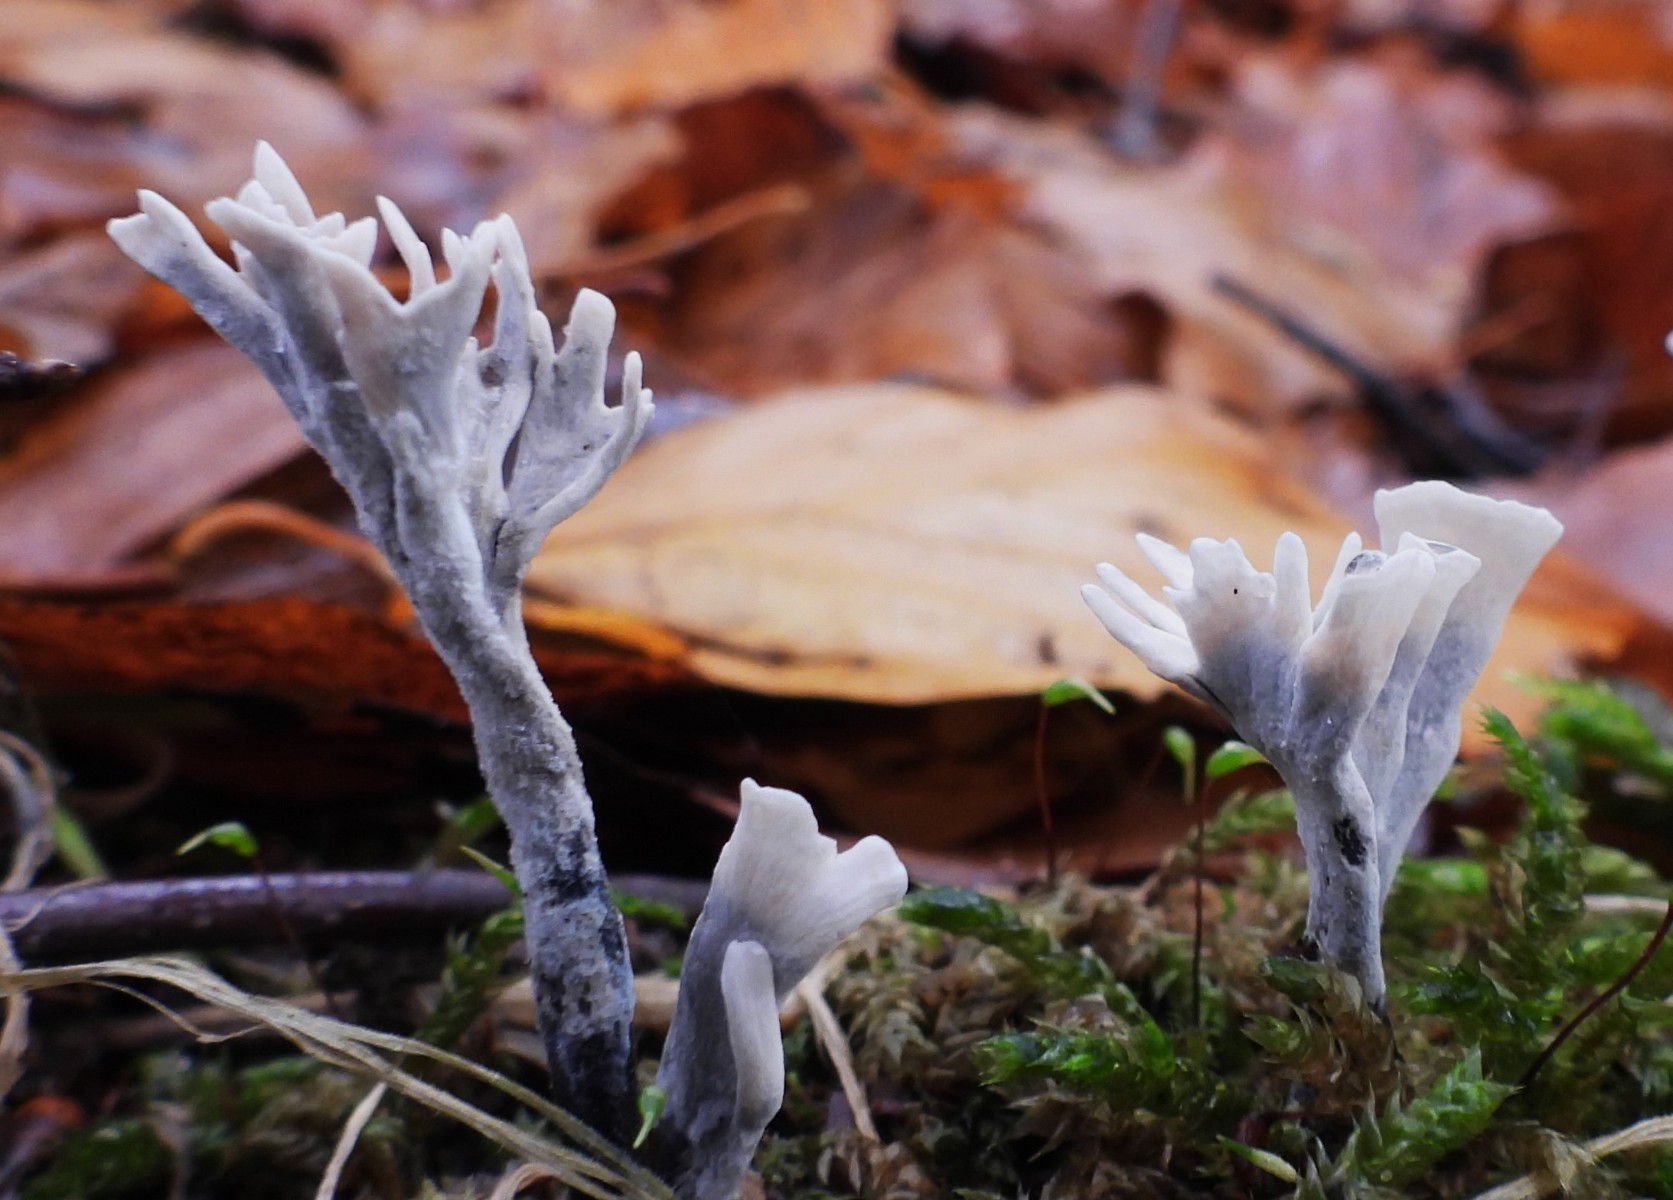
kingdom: Fungi
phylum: Ascomycota
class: Sordariomycetes
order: Xylariales
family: Xylariaceae
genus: Xylaria
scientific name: Xylaria hypoxylon
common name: grenet stødsvamp
